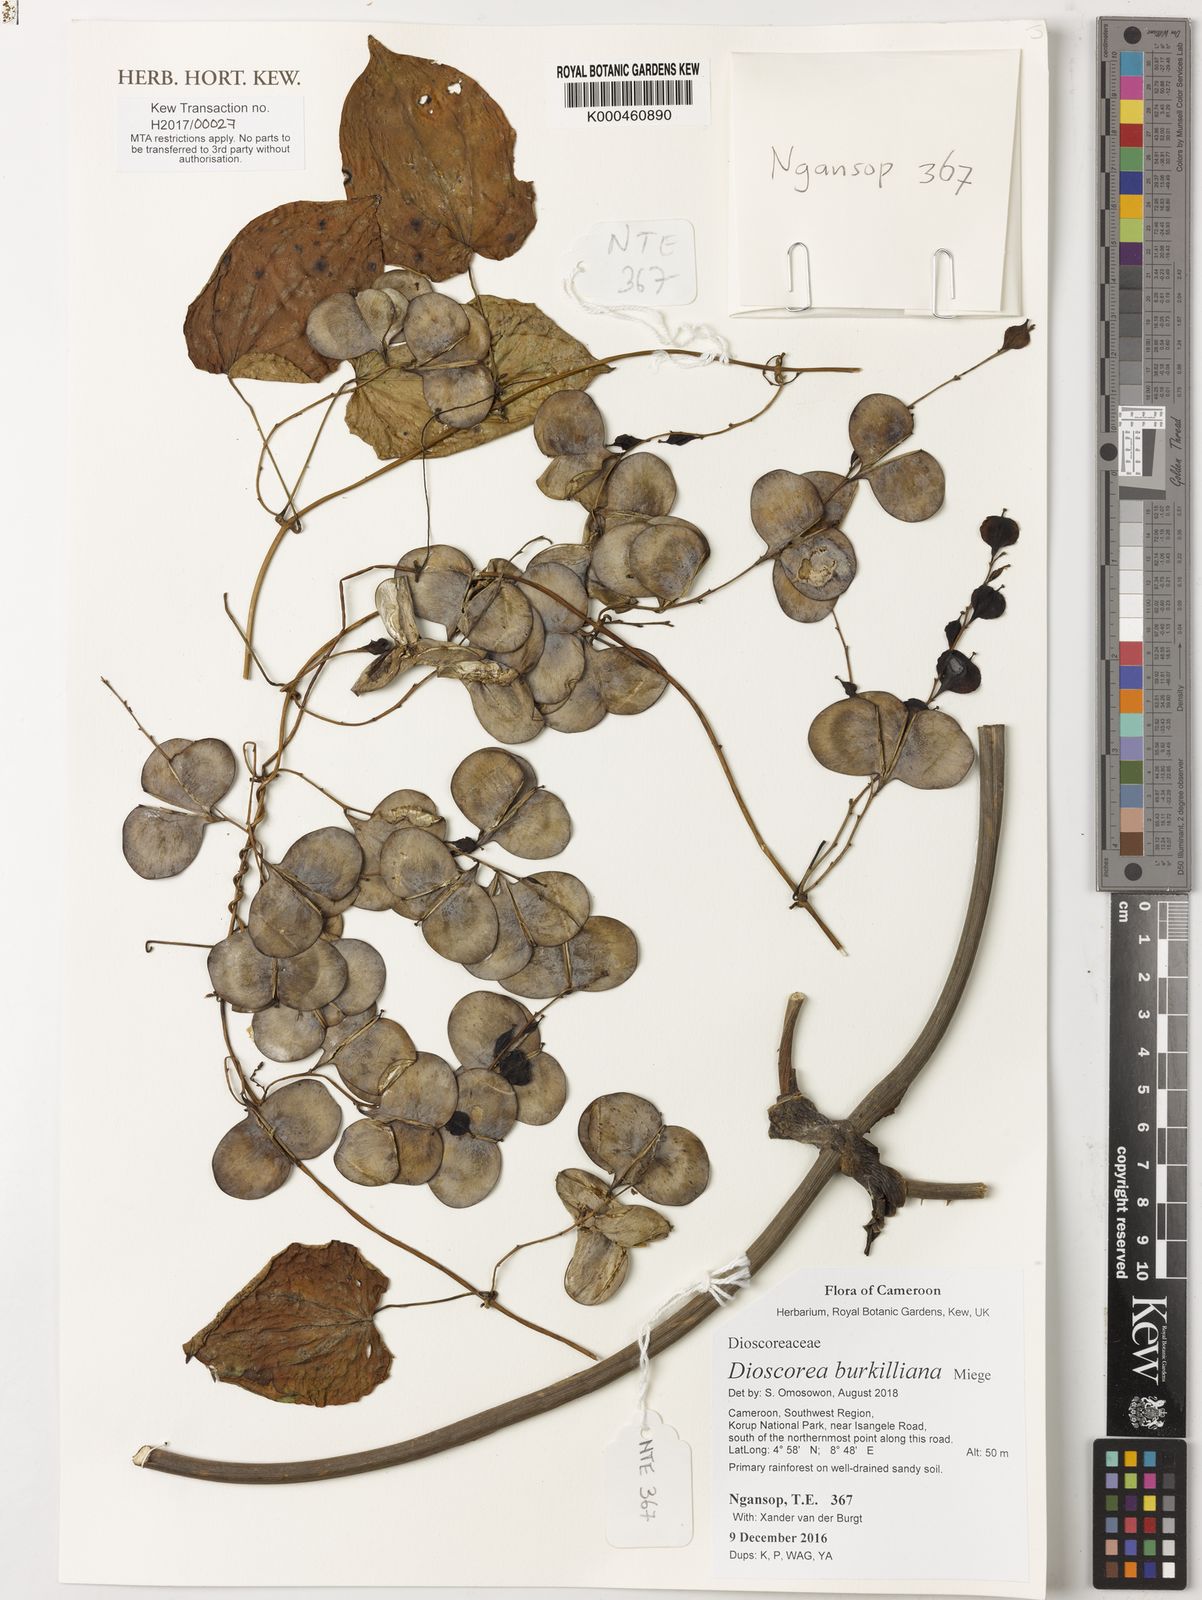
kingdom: Plantae
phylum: Tracheophyta
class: Liliopsida
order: Dioscoreales
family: Dioscoreaceae
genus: Dioscorea
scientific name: Dioscorea burkilliana
